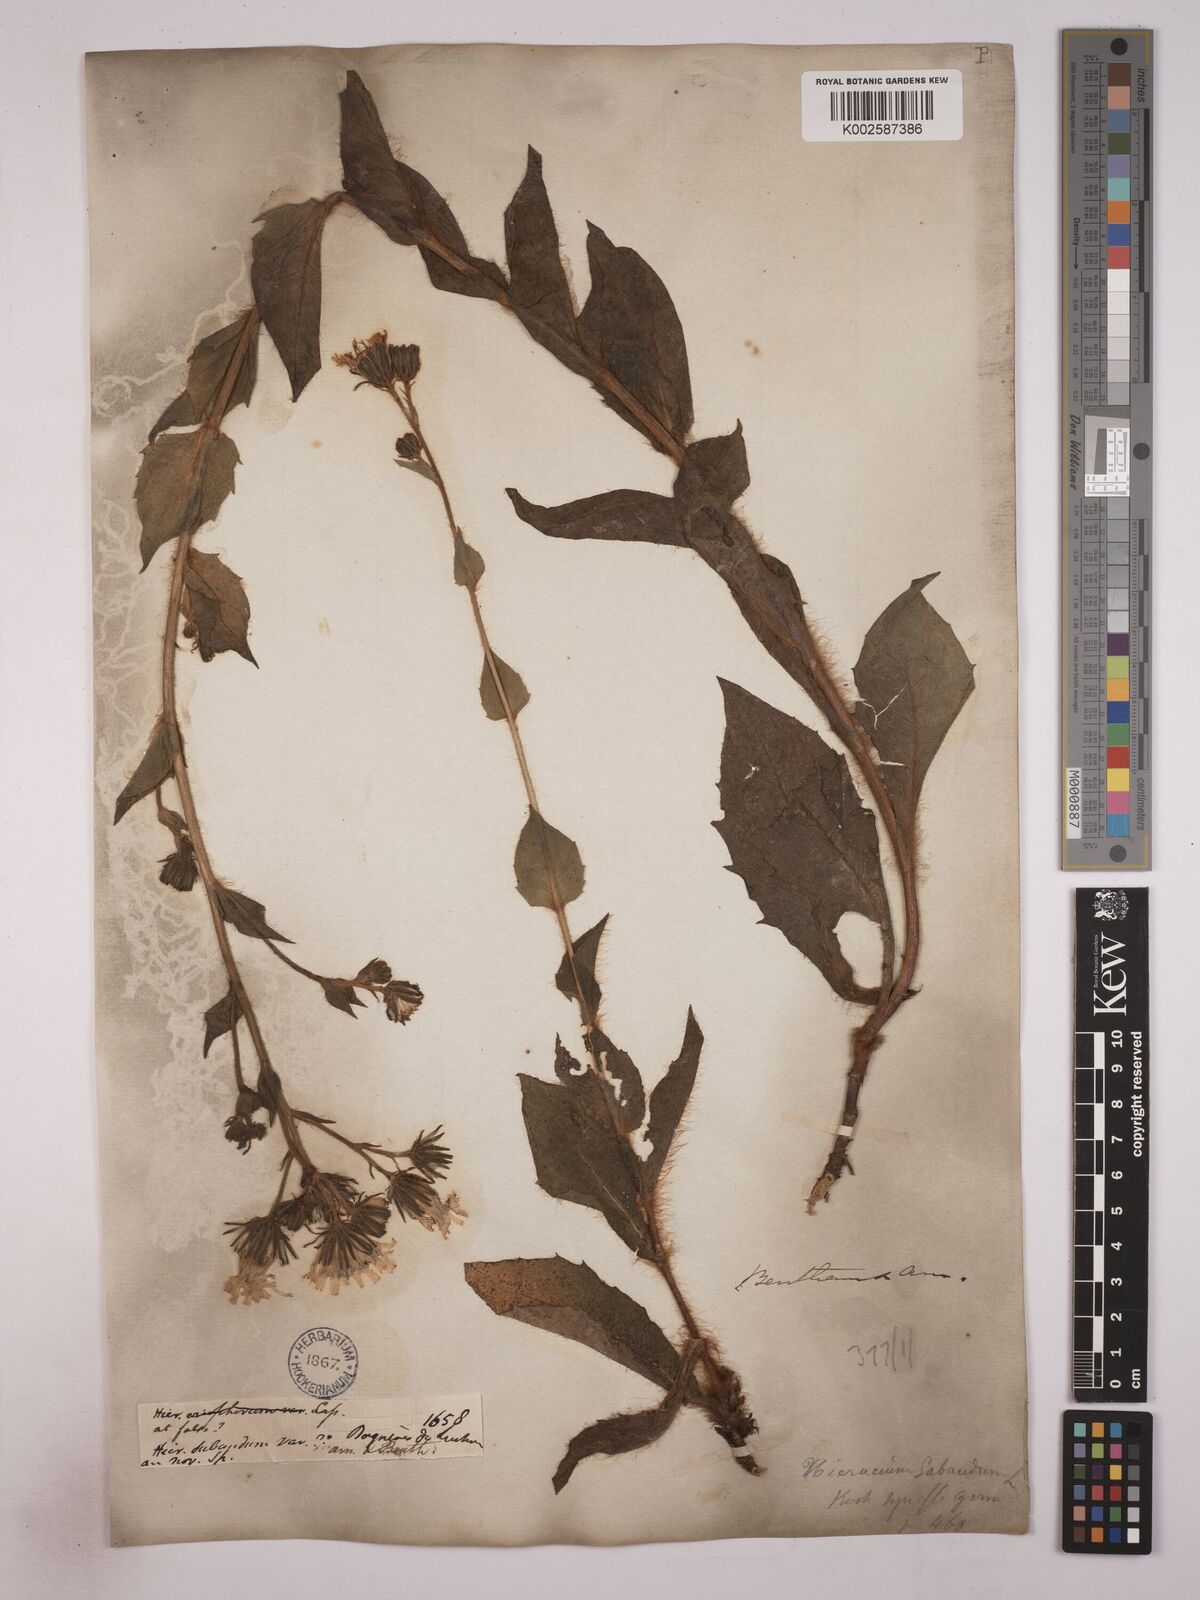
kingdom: Plantae
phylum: Tracheophyta
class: Magnoliopsida
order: Asterales
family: Asteraceae
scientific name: Asteraceae
